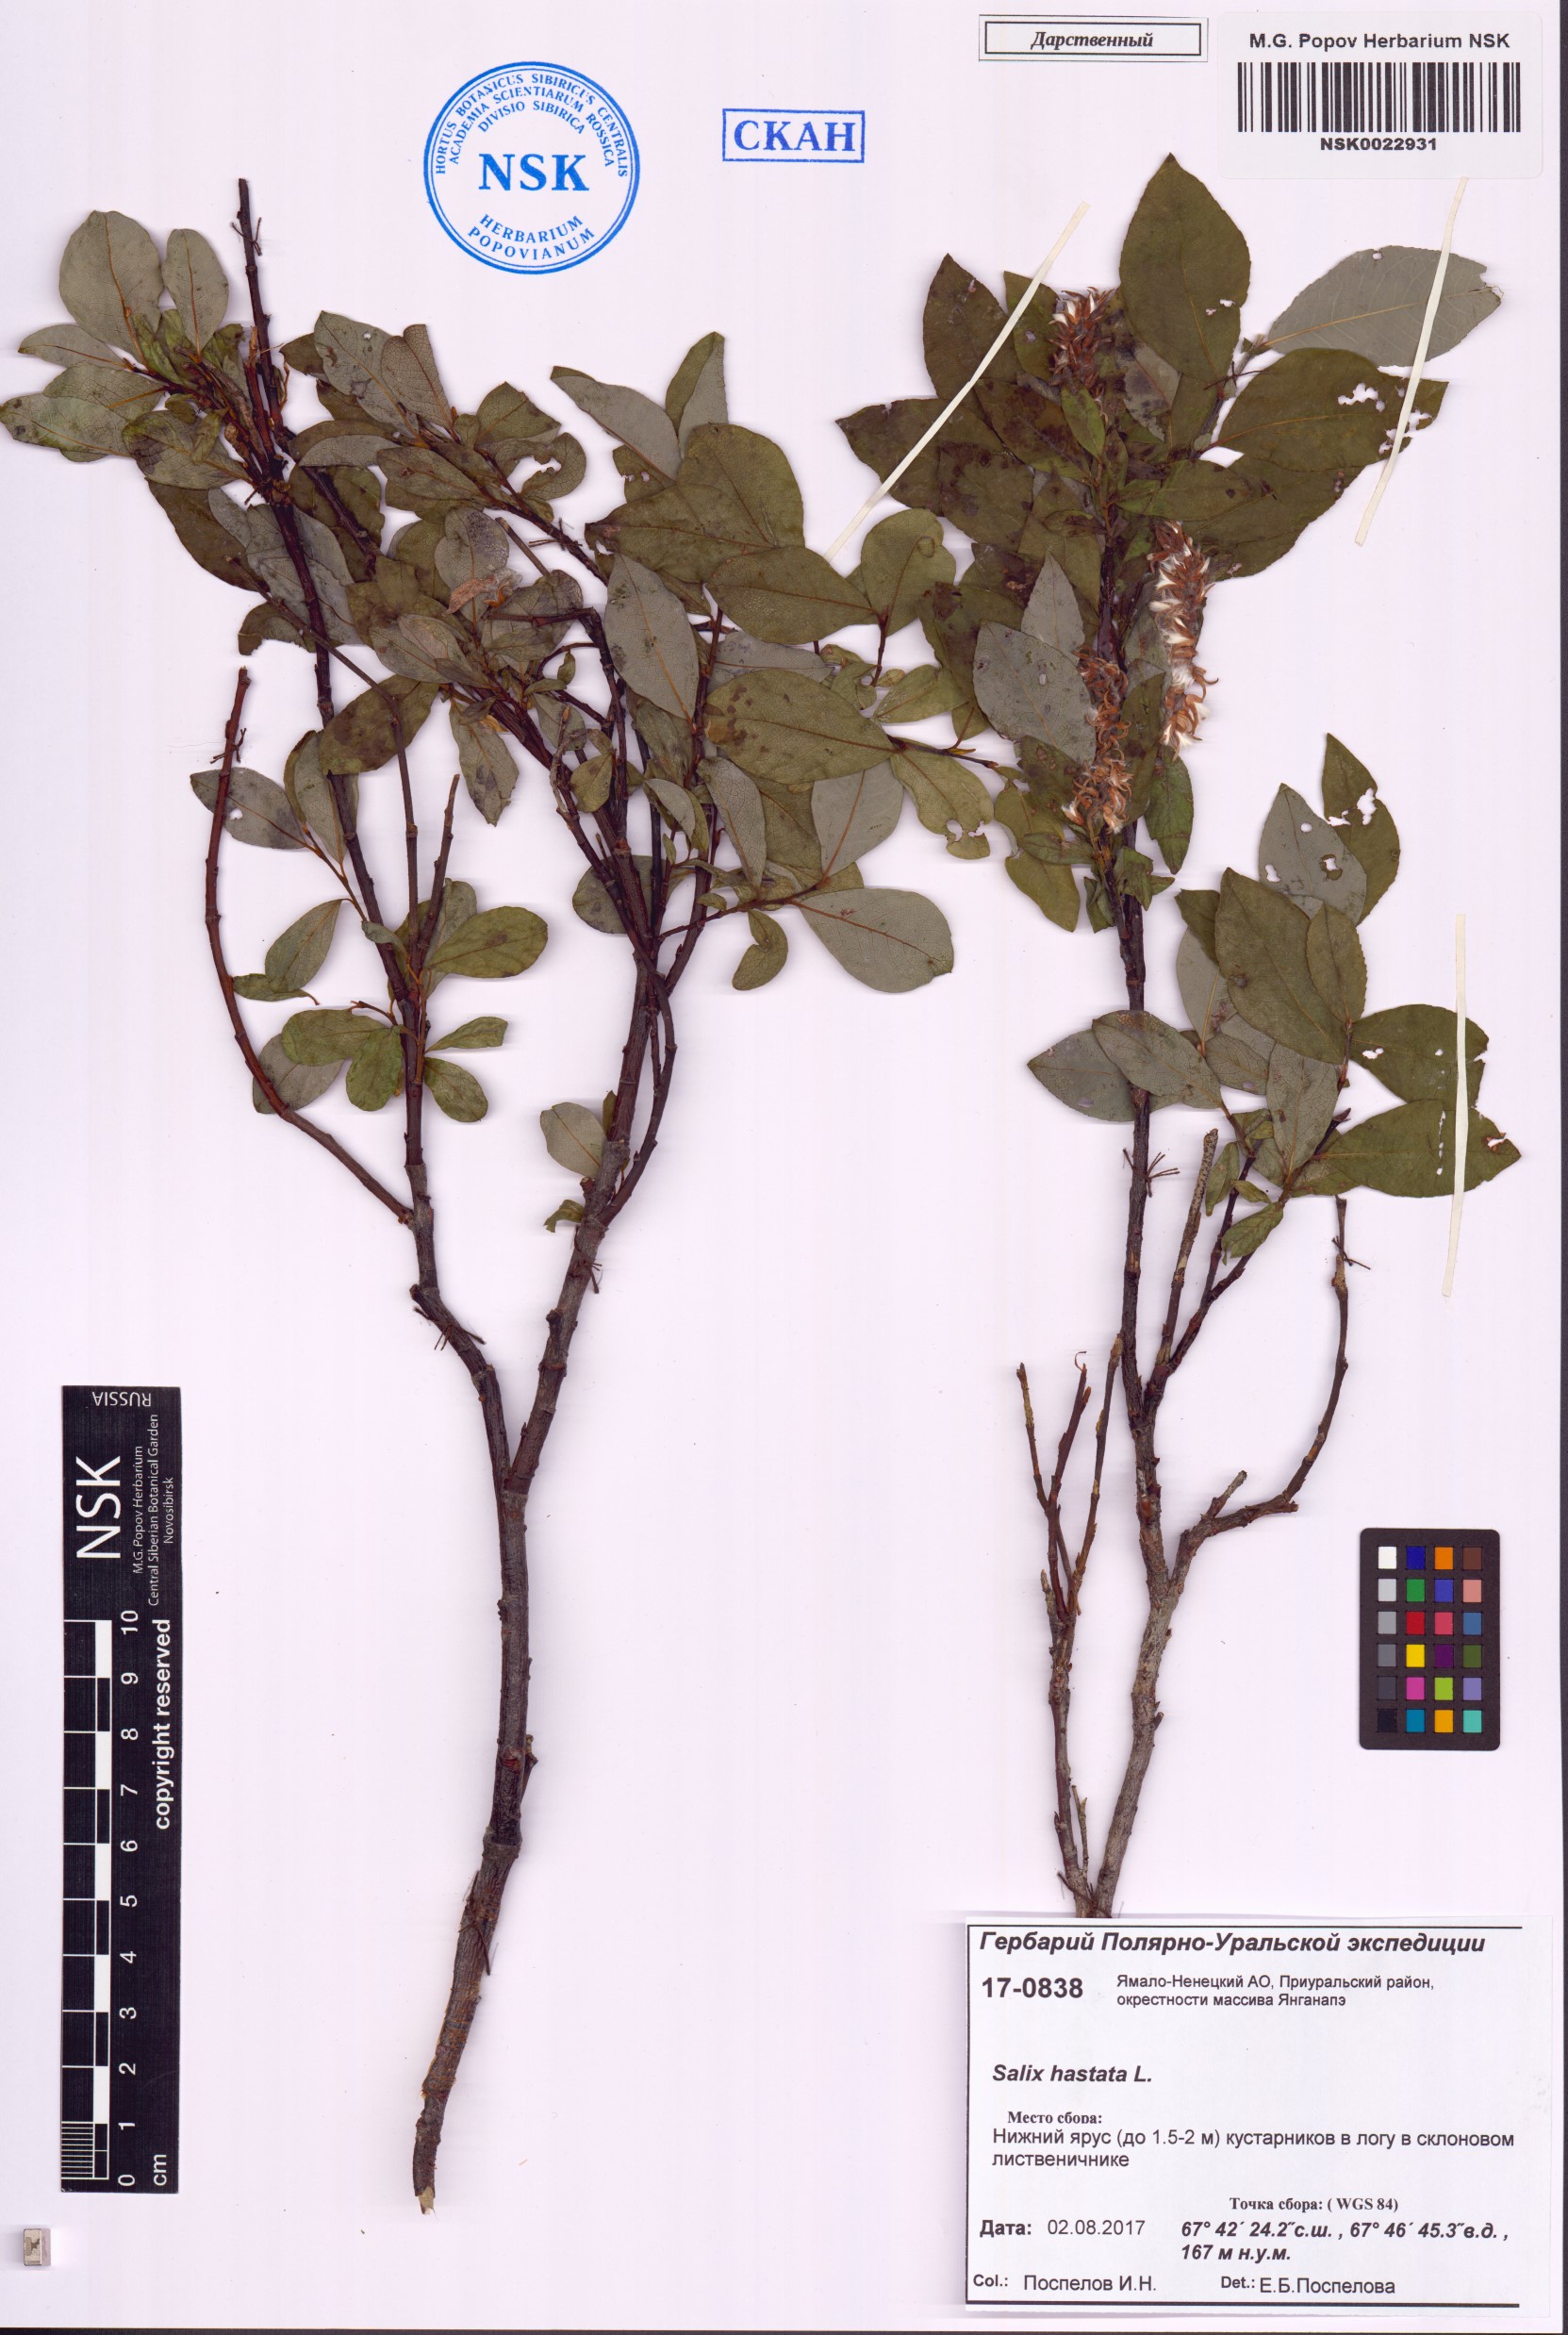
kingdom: Plantae
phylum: Tracheophyta
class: Magnoliopsida
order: Malpighiales
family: Salicaceae
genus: Salix
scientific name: Salix hastata
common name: Halberd willow
